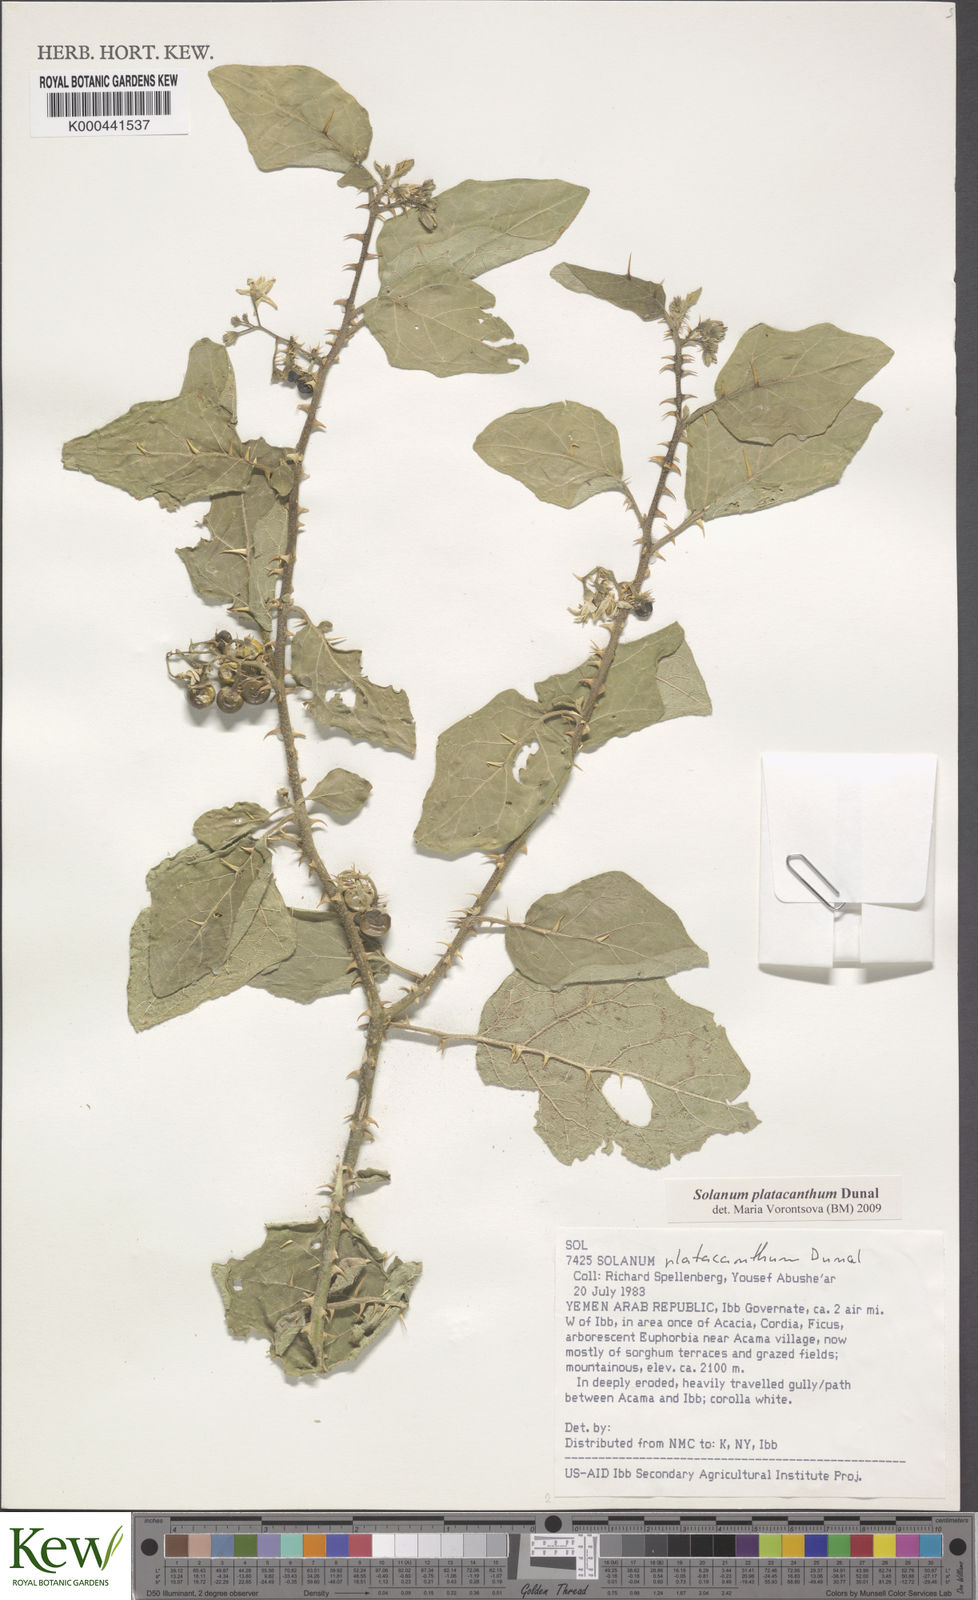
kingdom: Plantae
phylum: Tracheophyta
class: Magnoliopsida
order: Solanales
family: Solanaceae
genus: Solanum
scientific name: Solanum platacanthum
